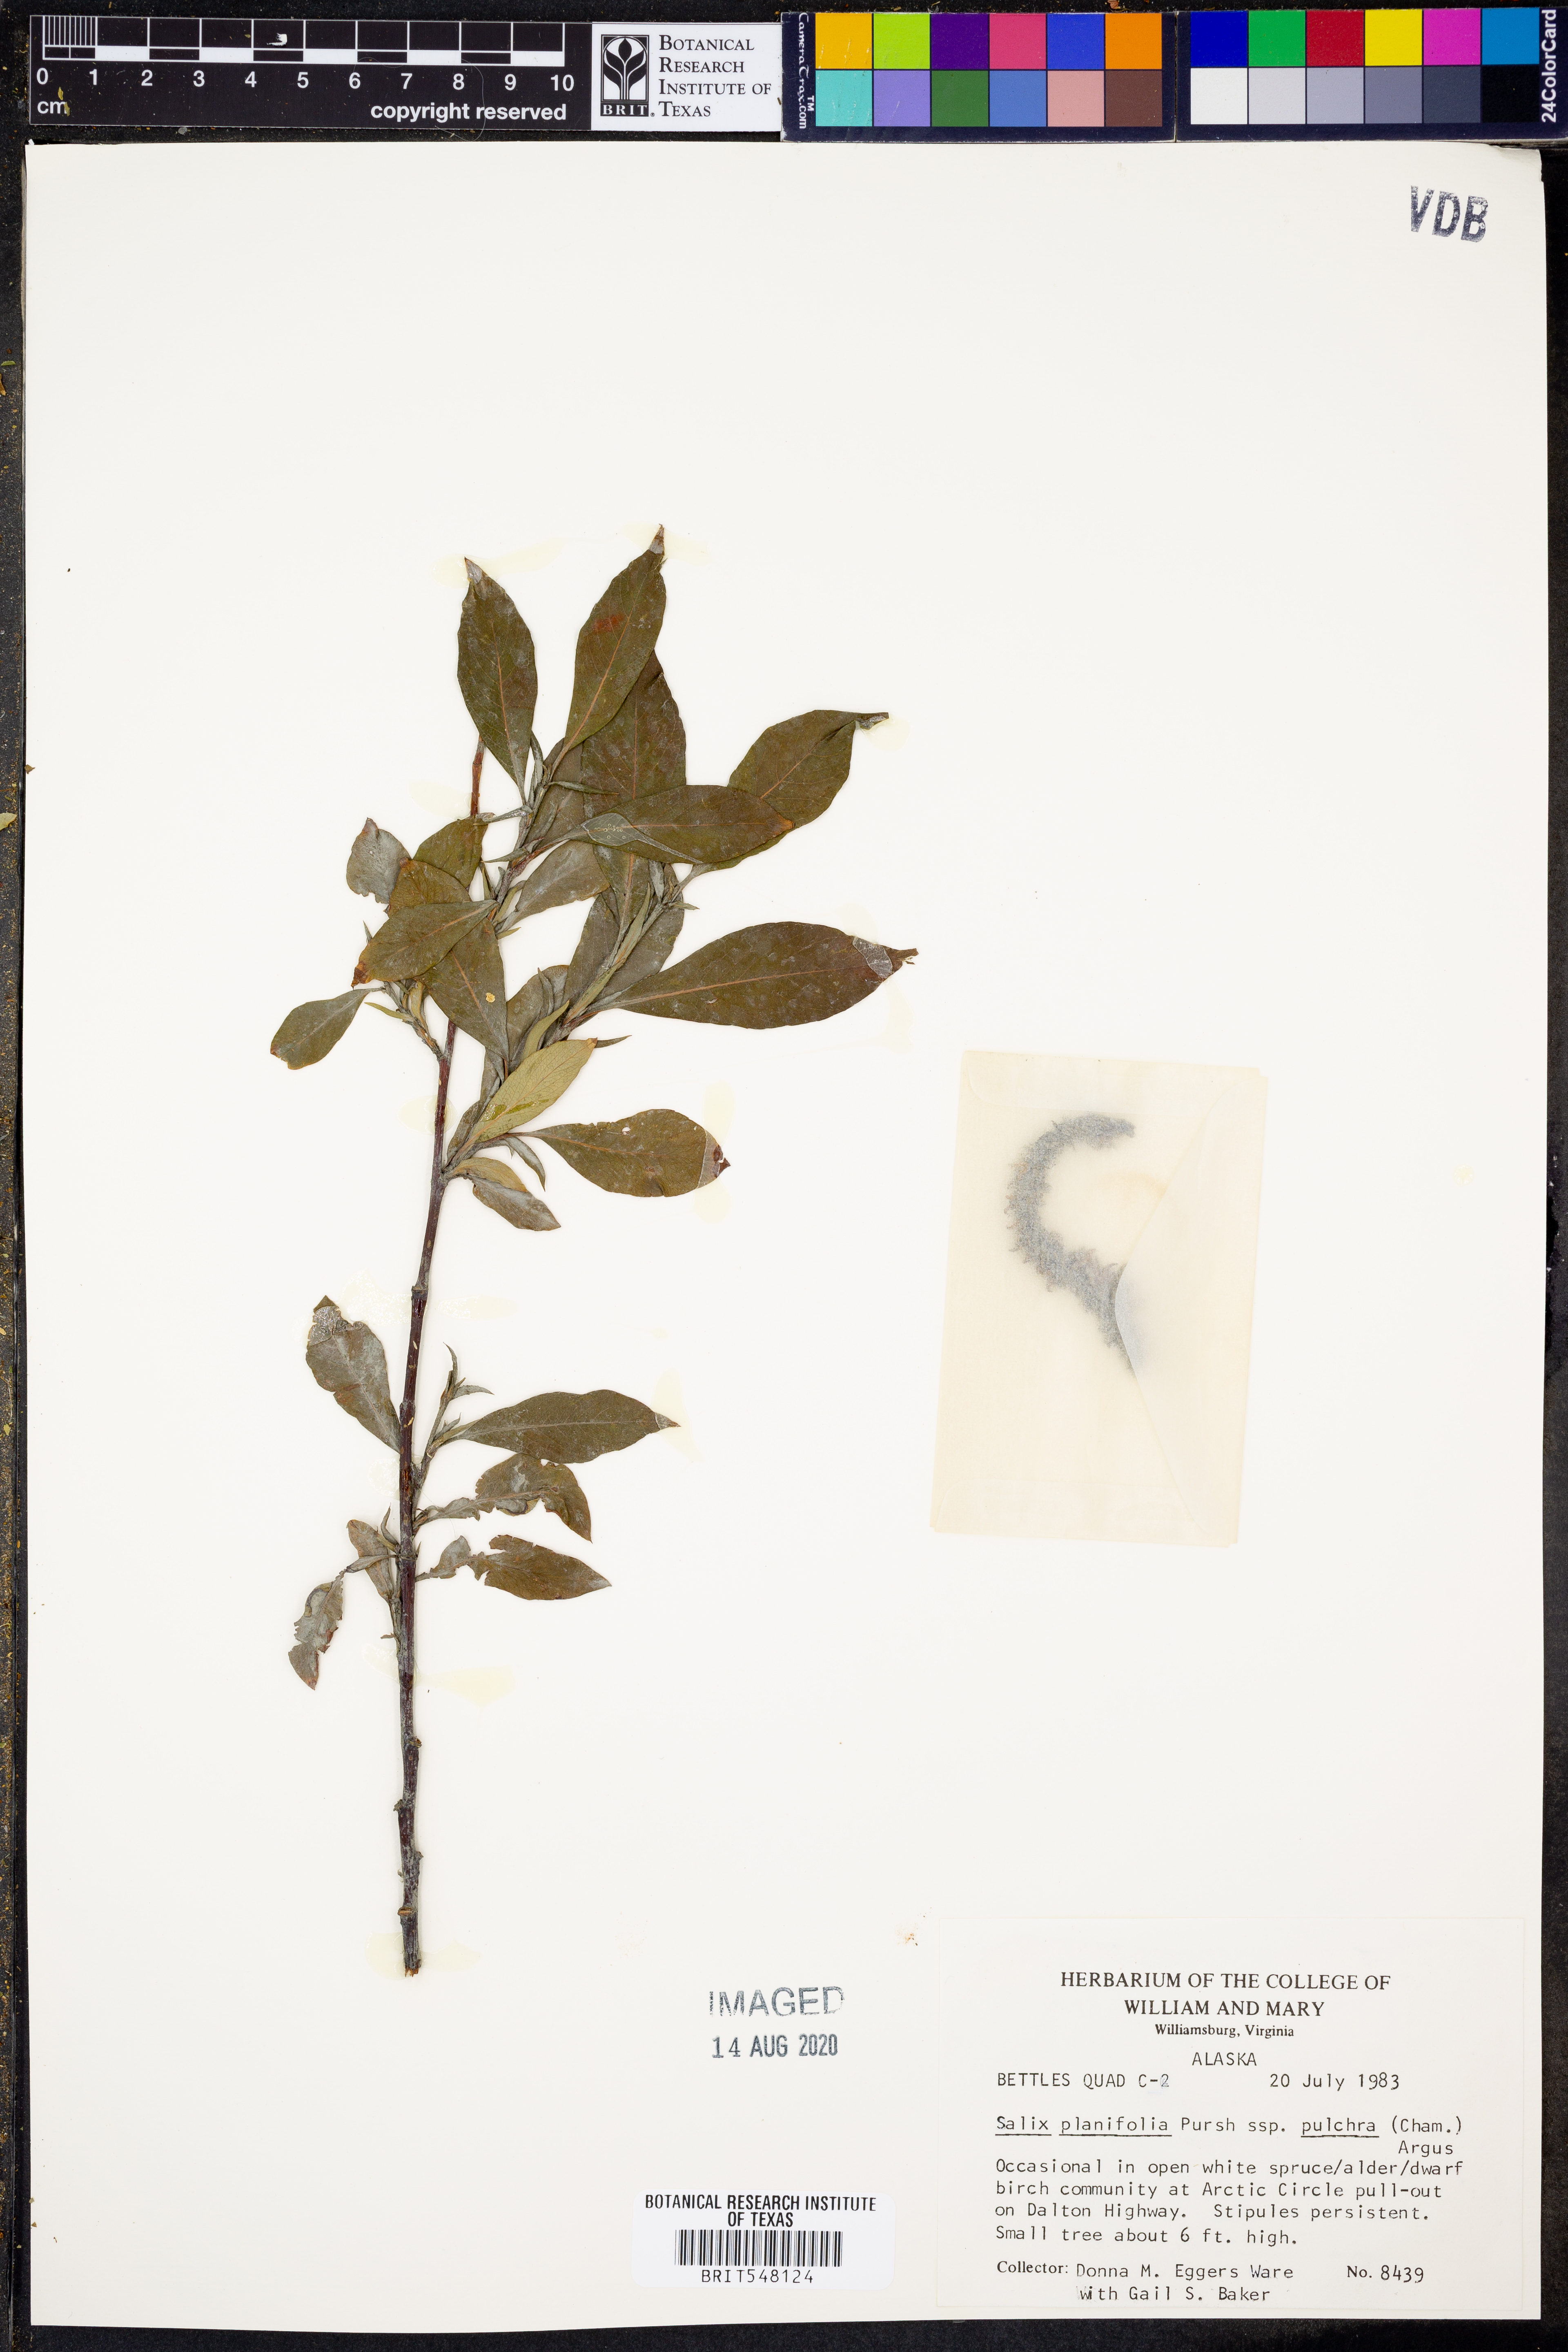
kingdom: Plantae
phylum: Tracheophyta
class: Magnoliopsida
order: Malpighiales
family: Salicaceae
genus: Salix
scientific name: Salix pulchra
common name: Diamond-leaved willow
